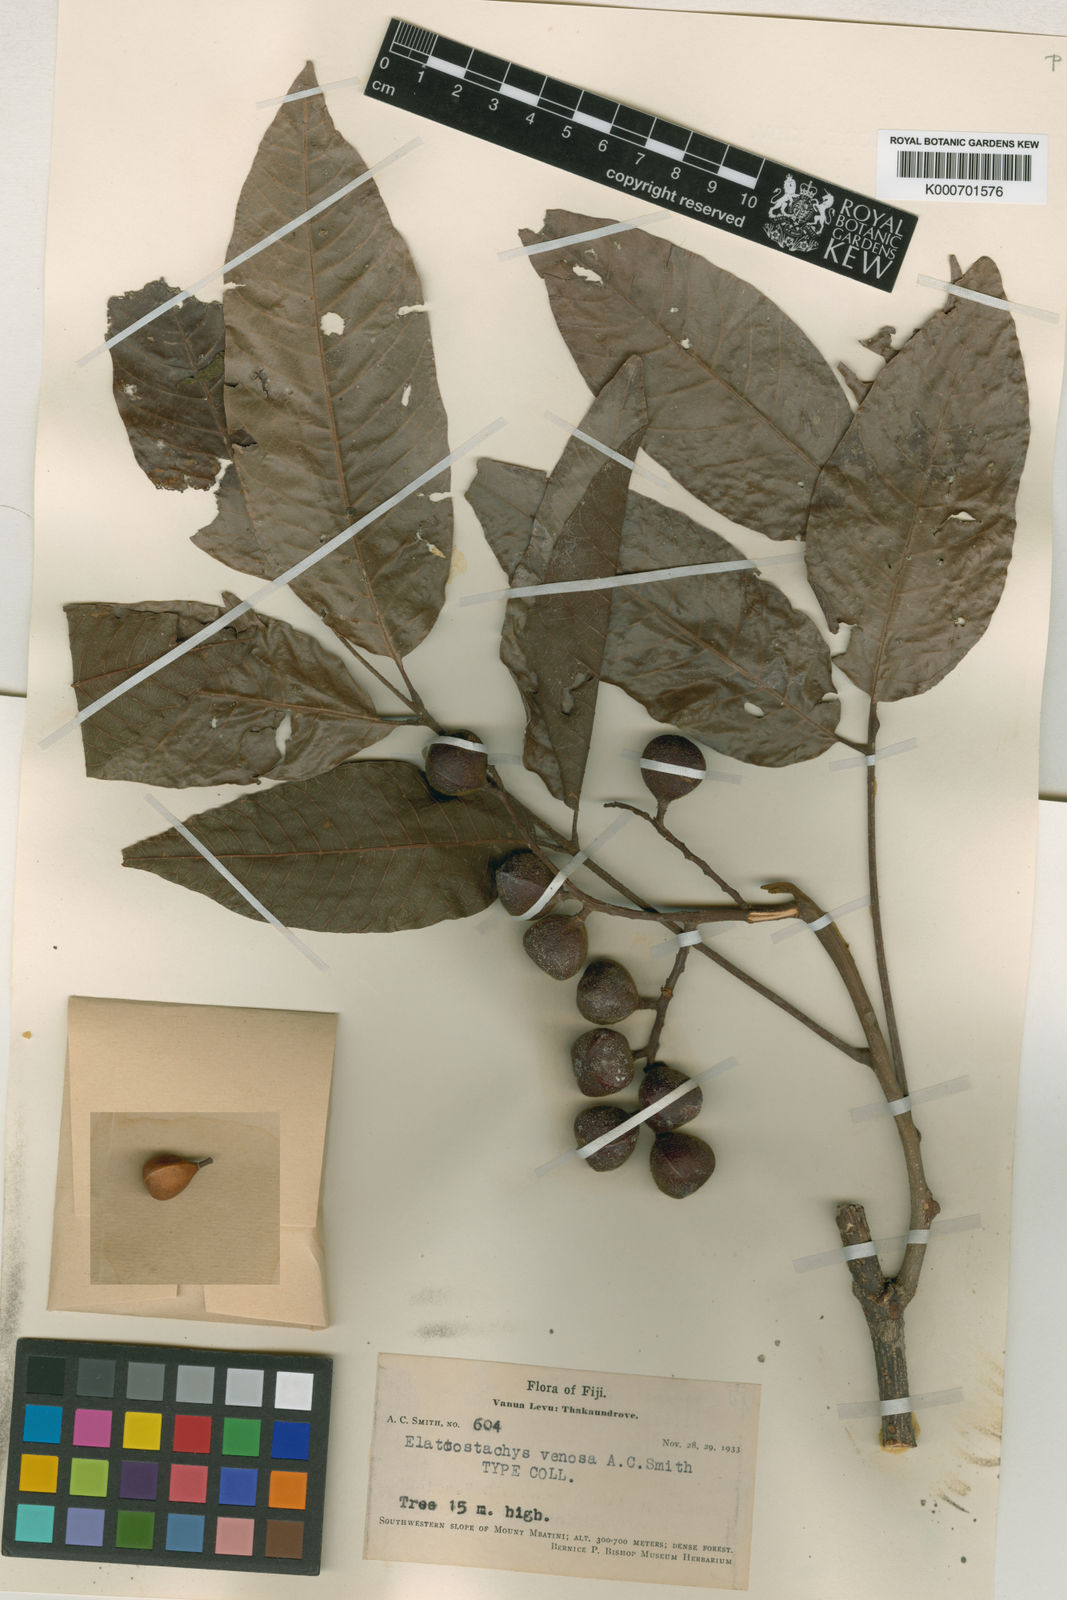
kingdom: Plantae
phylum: Tracheophyta
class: Magnoliopsida
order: Sapindales
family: Sapindaceae
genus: Elattostachys
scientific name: Elattostachys venosus
